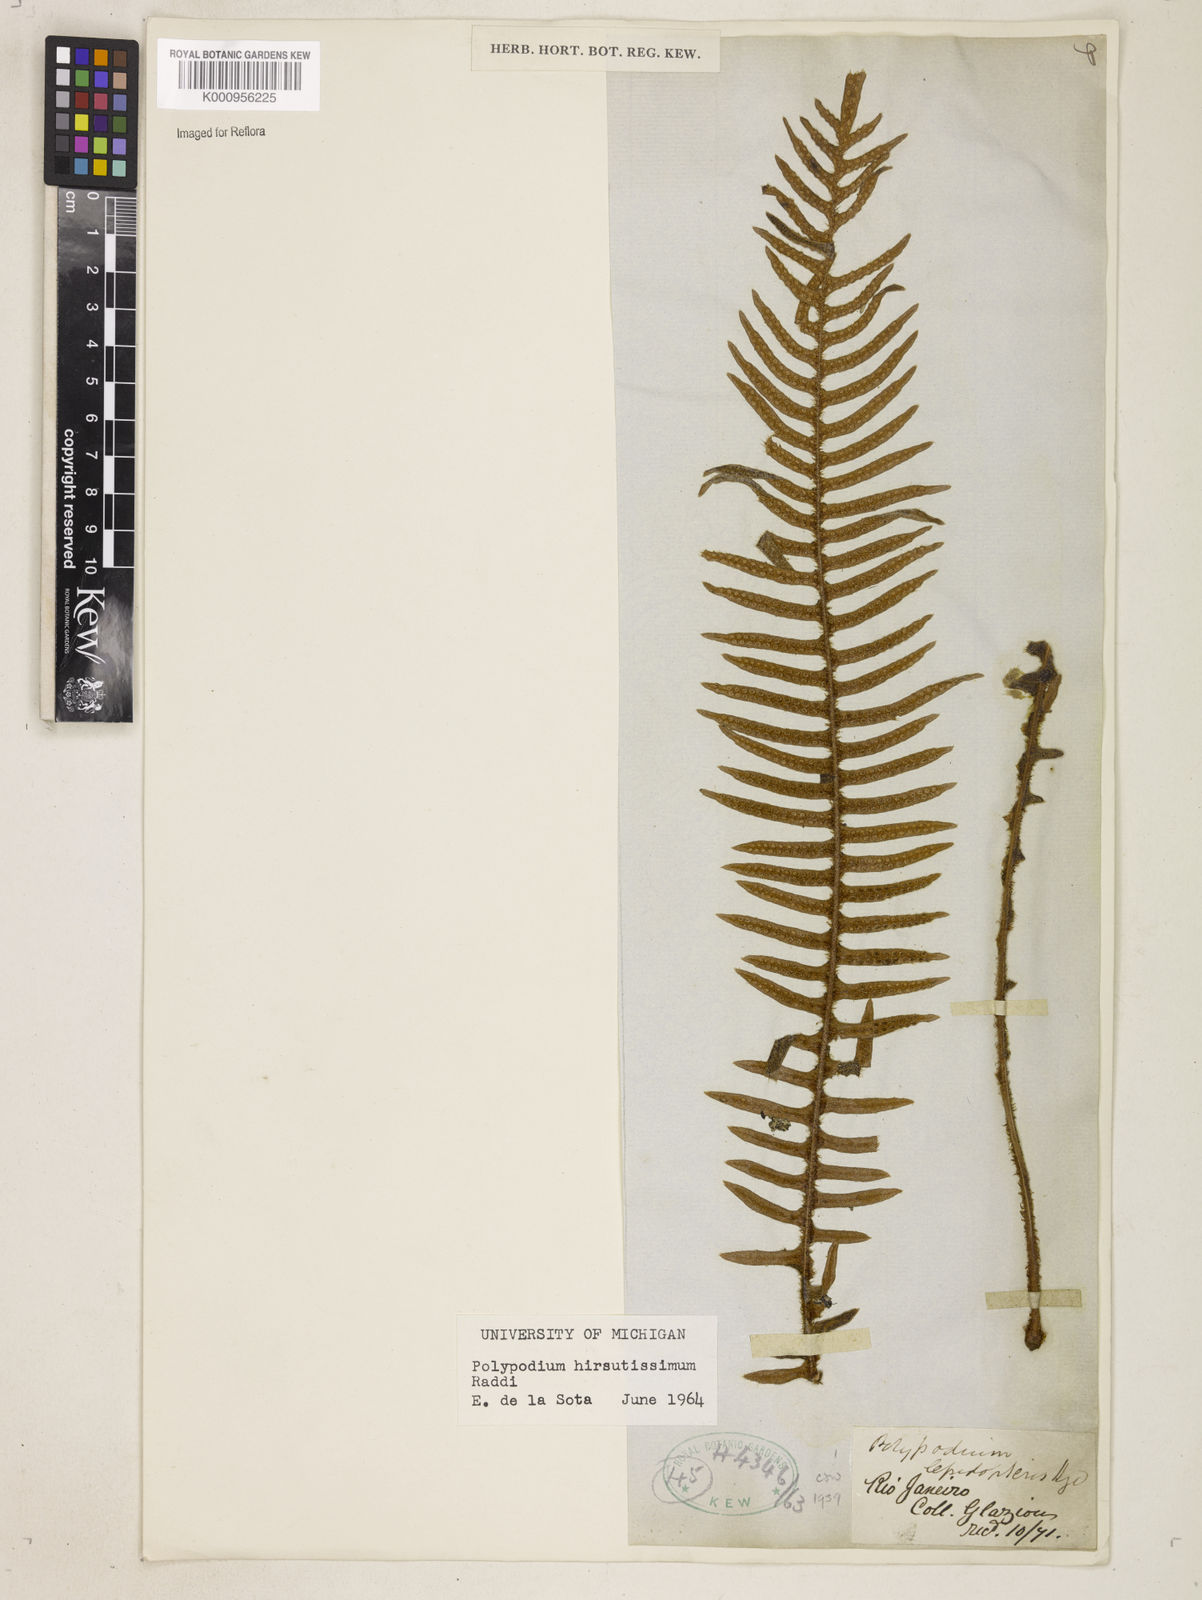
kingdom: Plantae
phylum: Tracheophyta
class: Polypodiopsida
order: Polypodiales
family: Polypodiaceae
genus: Pleopeltis
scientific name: Pleopeltis hirsutissima
